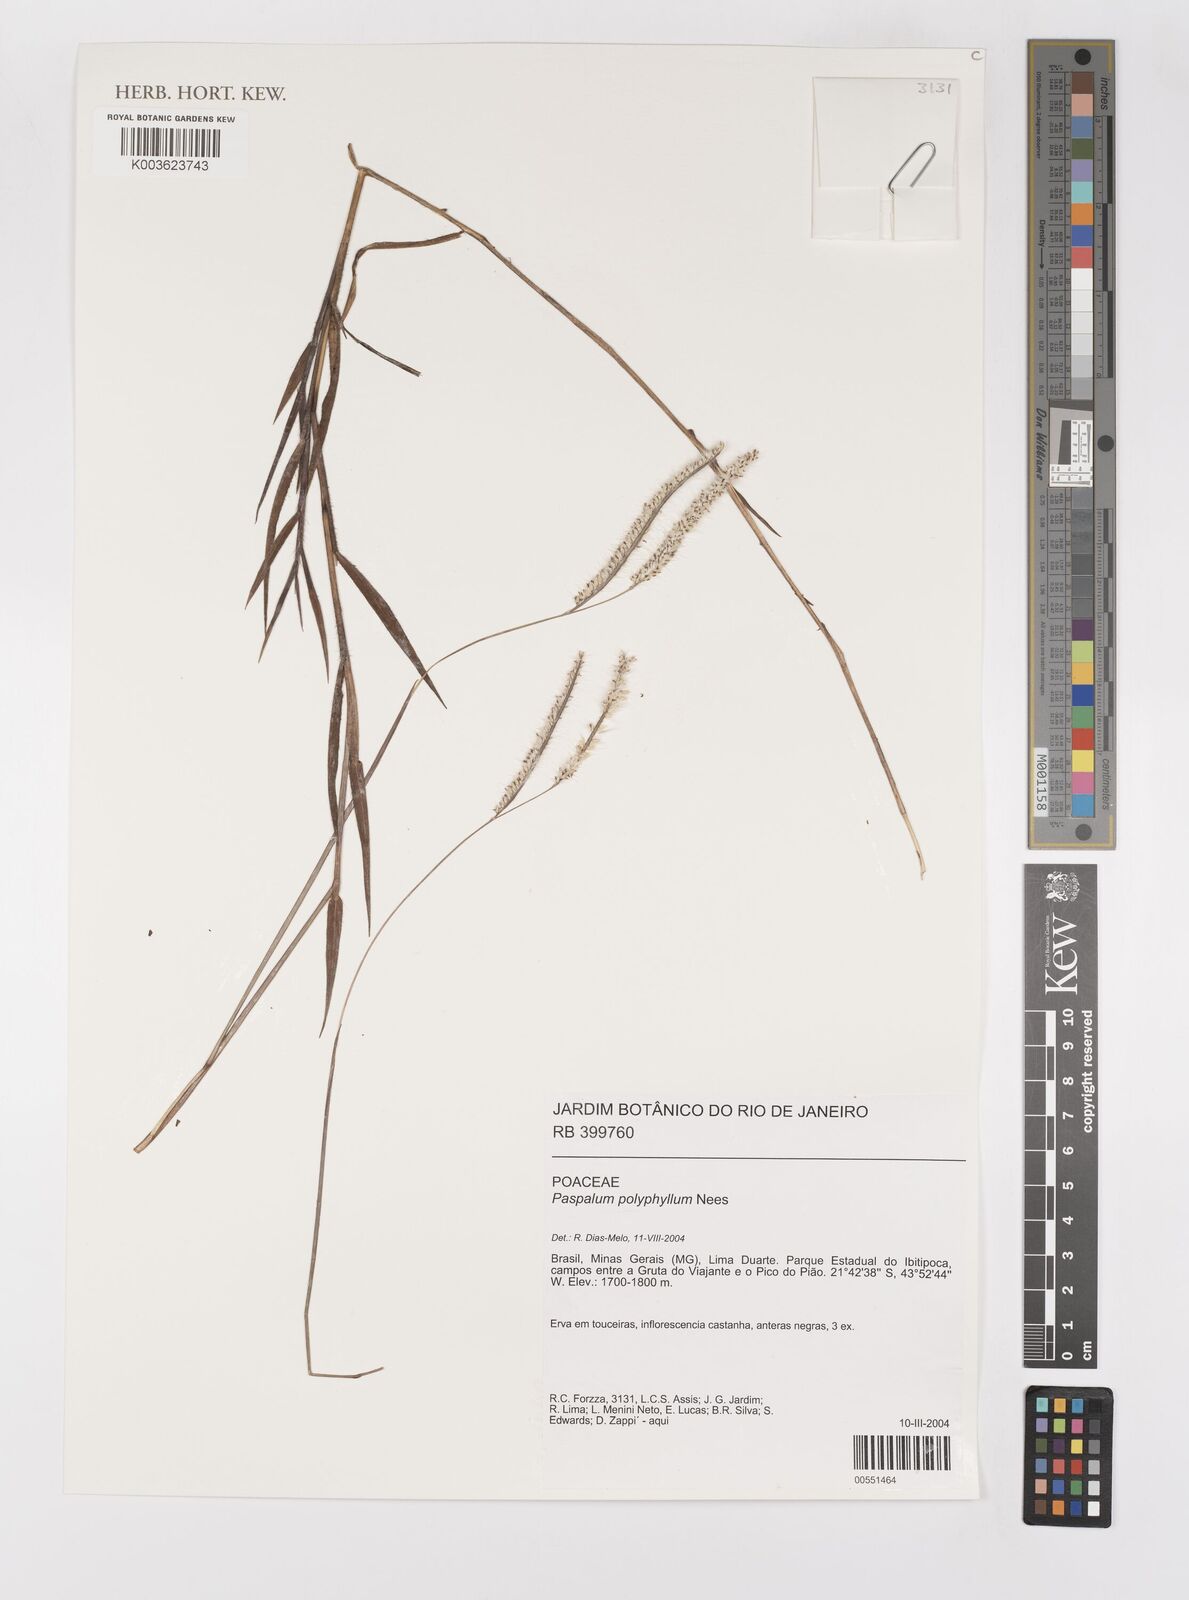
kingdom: Plantae
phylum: Tracheophyta
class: Liliopsida
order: Poales
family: Poaceae
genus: Paspalum
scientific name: Paspalum polyphyllum
